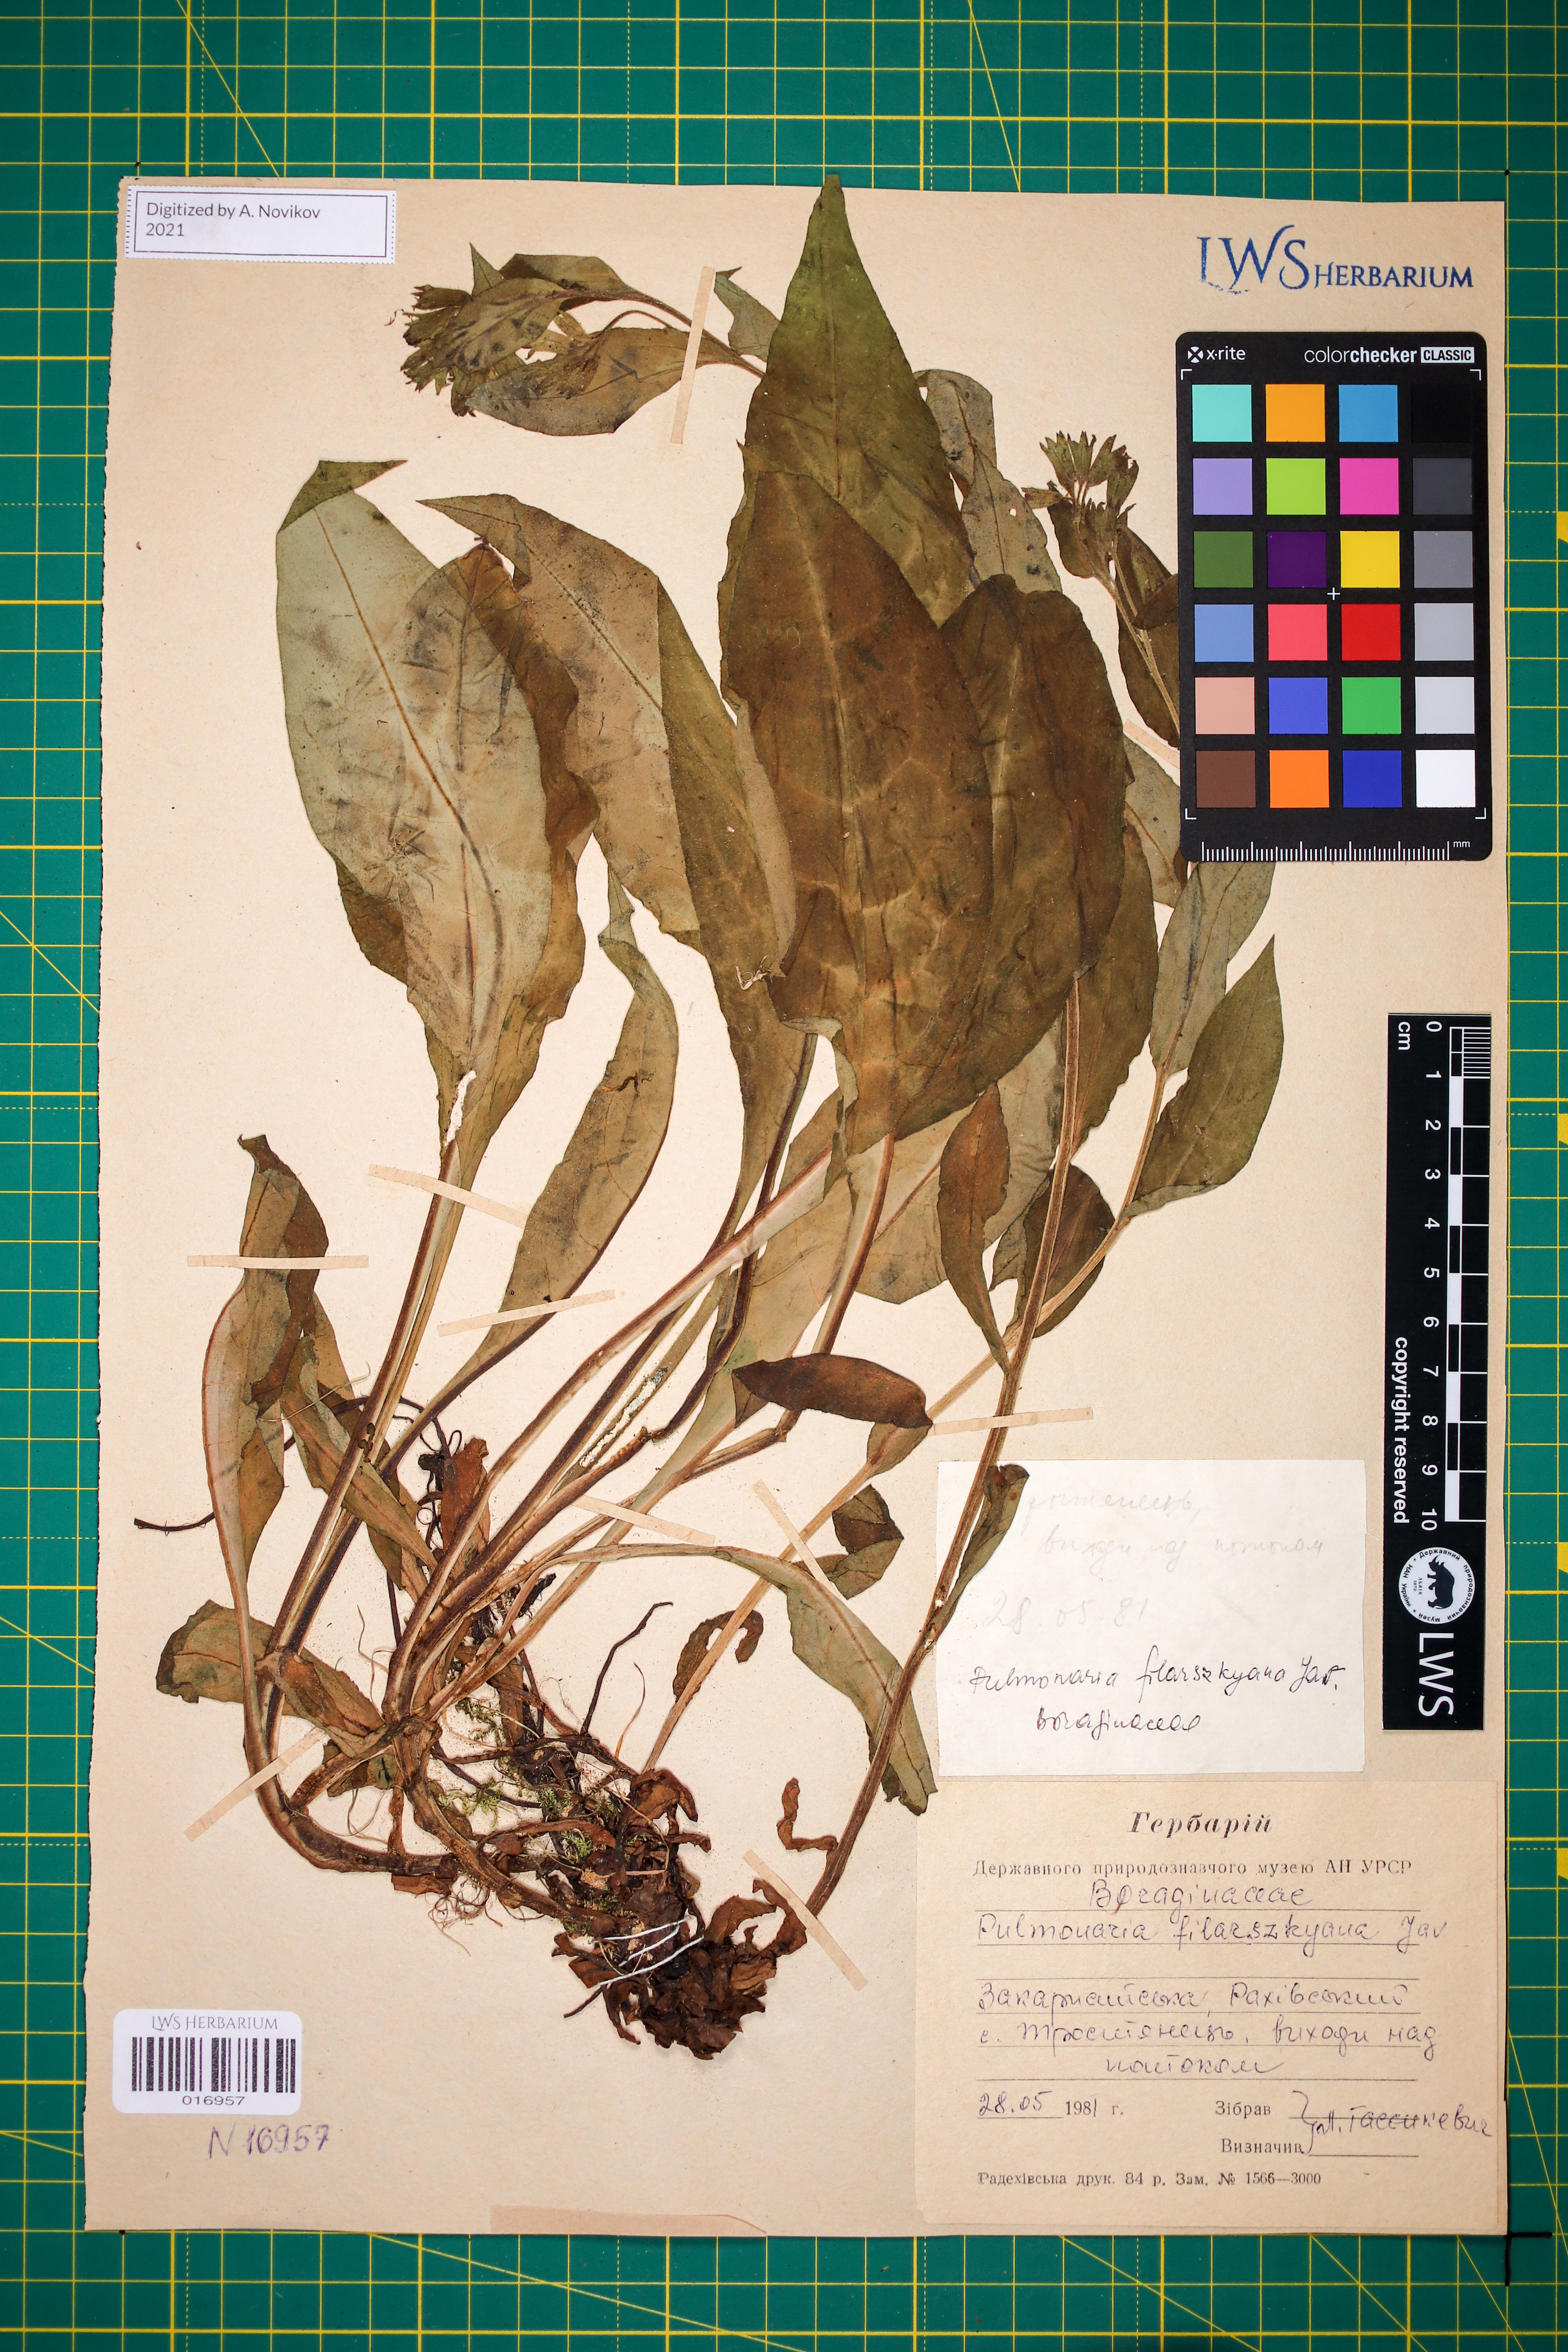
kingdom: Plantae
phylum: Tracheophyta
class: Magnoliopsida
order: Boraginales
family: Boraginaceae
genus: Pulmonaria
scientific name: Pulmonaria filarszkyana
